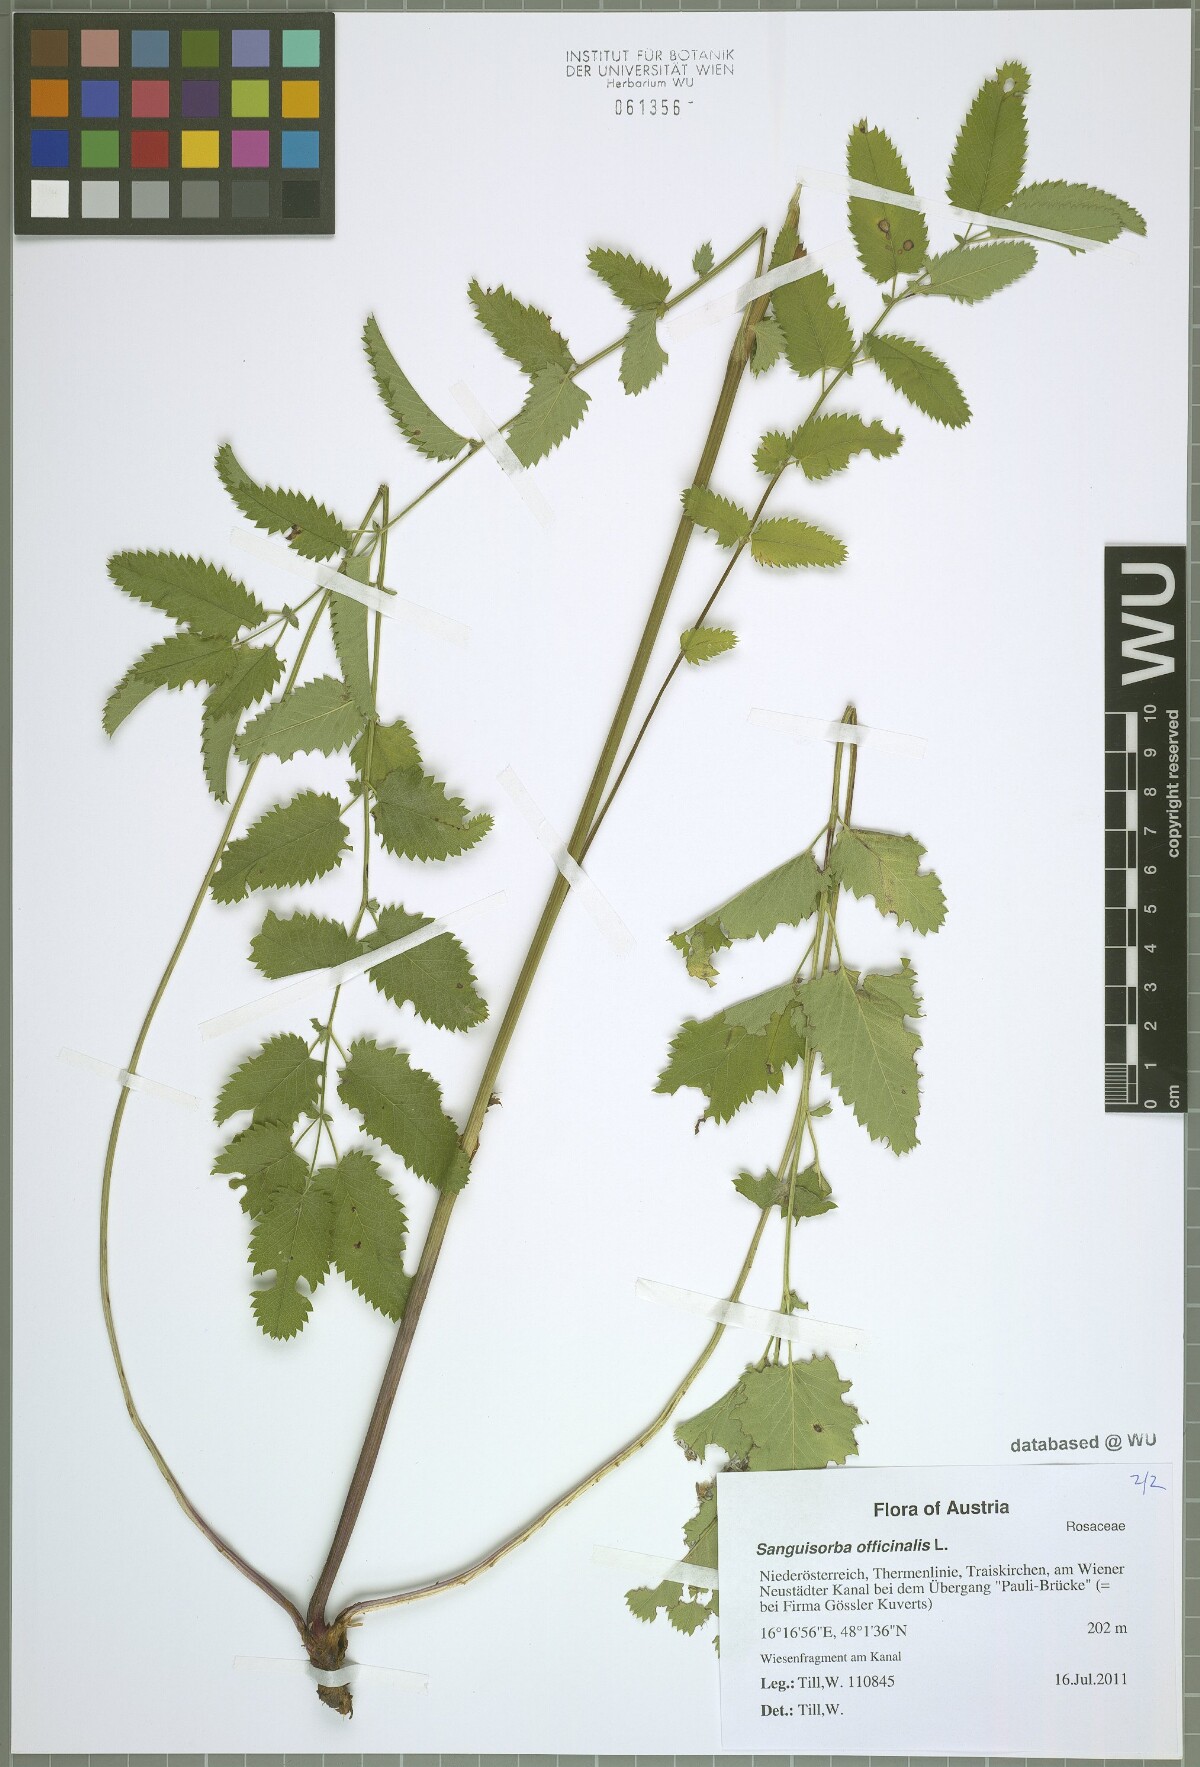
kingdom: Plantae
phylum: Tracheophyta
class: Magnoliopsida
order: Rosales
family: Rosaceae
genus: Sanguisorba
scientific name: Sanguisorba officinalis
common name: Great burnet
